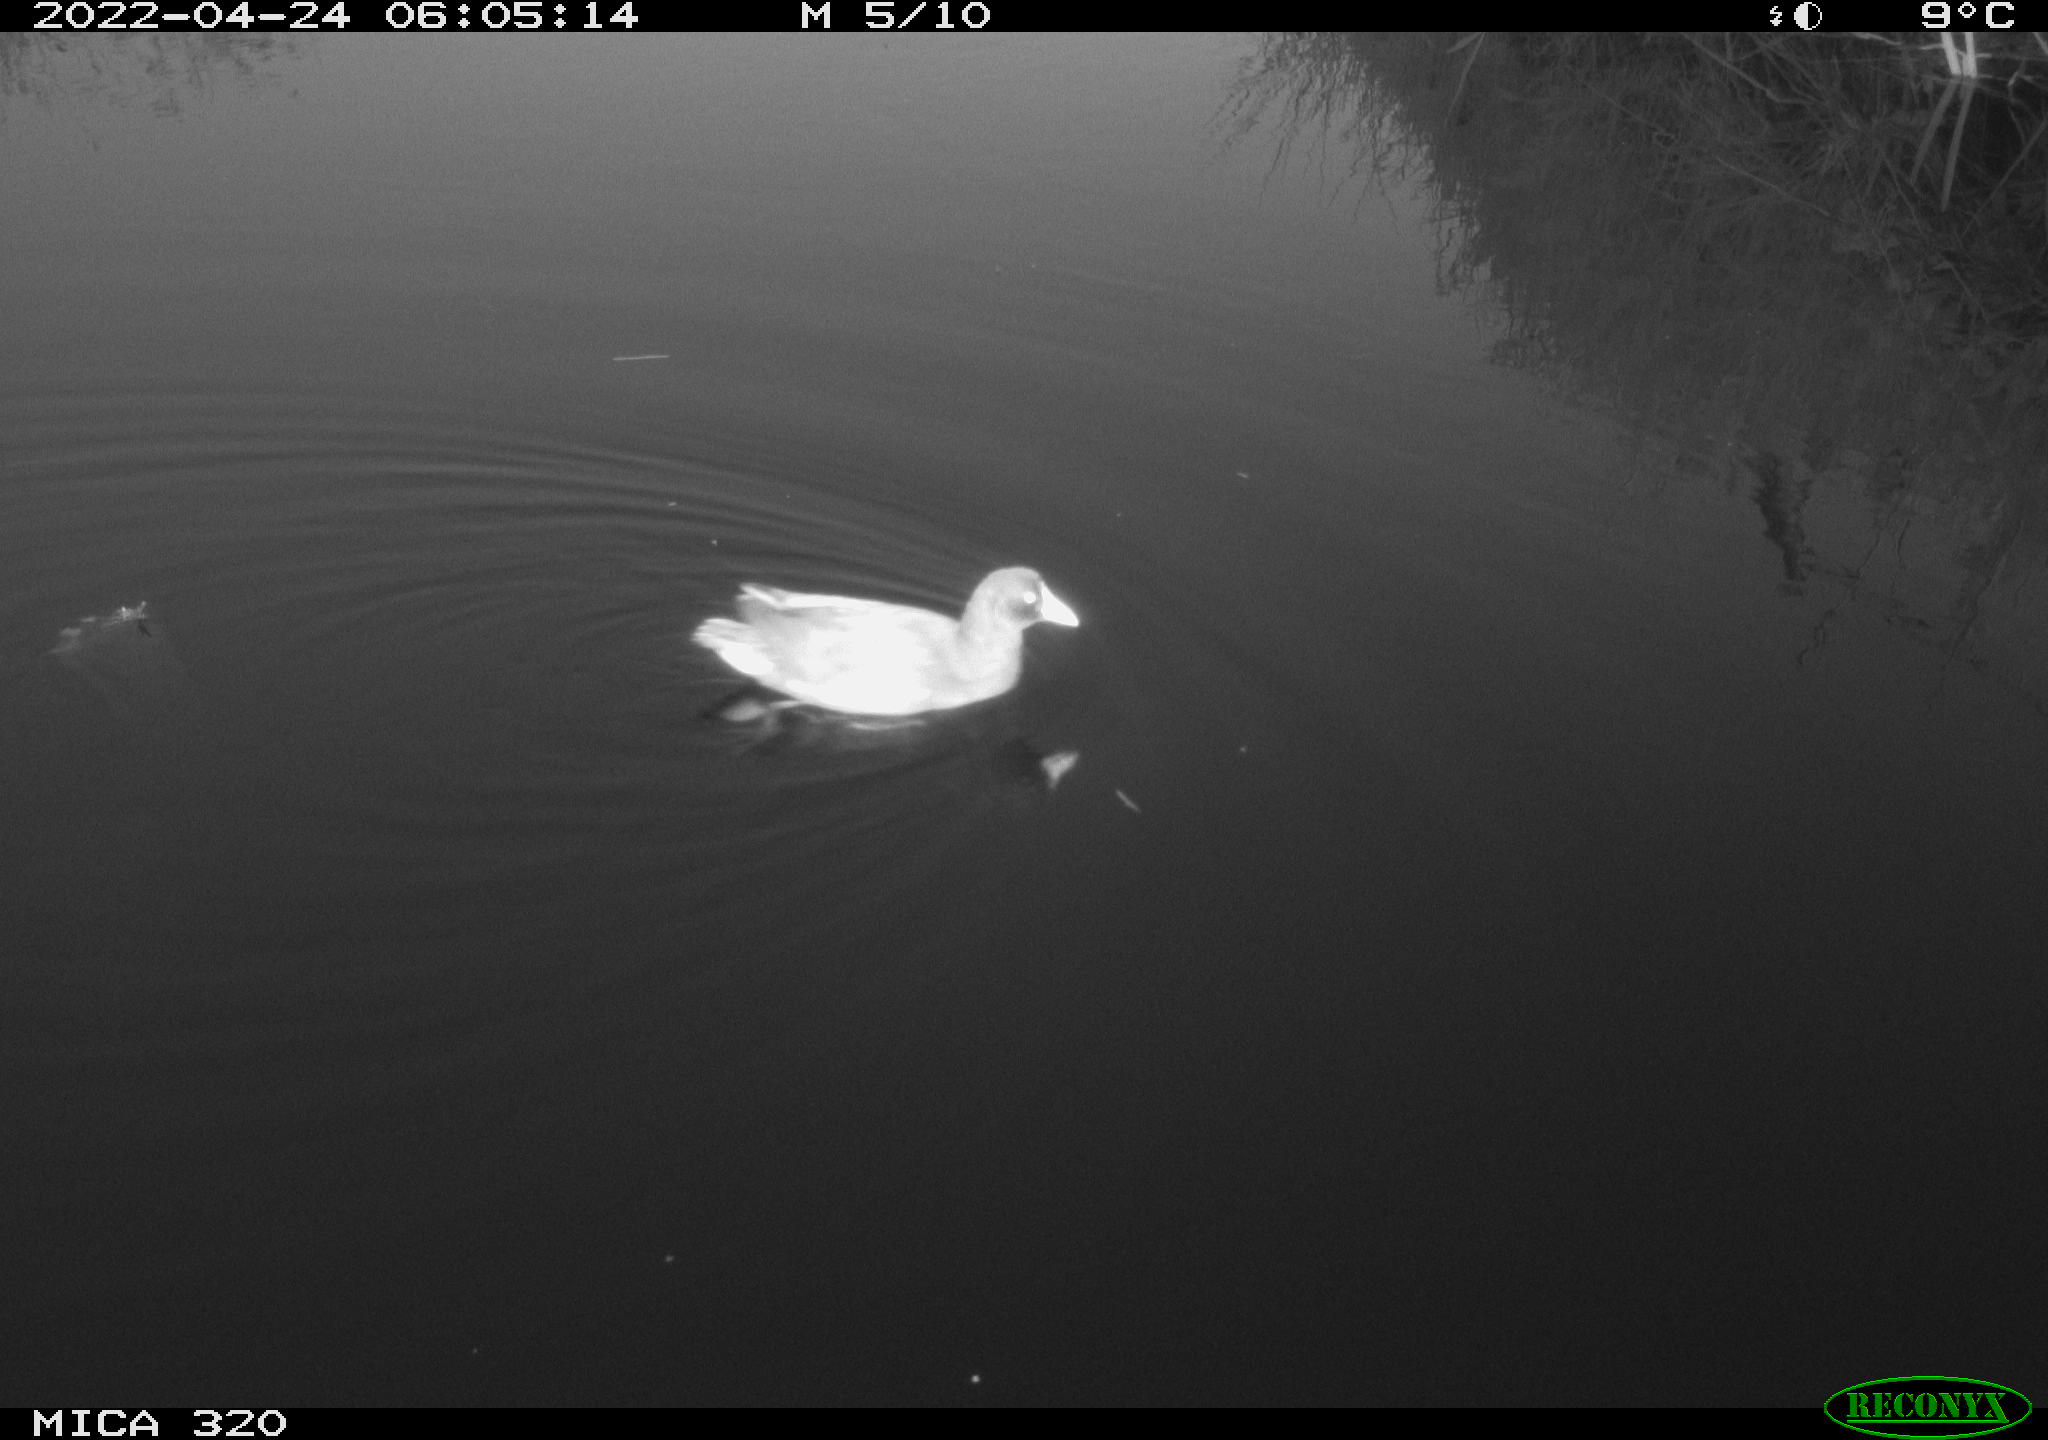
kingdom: Animalia
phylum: Chordata
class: Aves
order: Gruiformes
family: Rallidae
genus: Gallinula
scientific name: Gallinula chloropus
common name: Common moorhen
